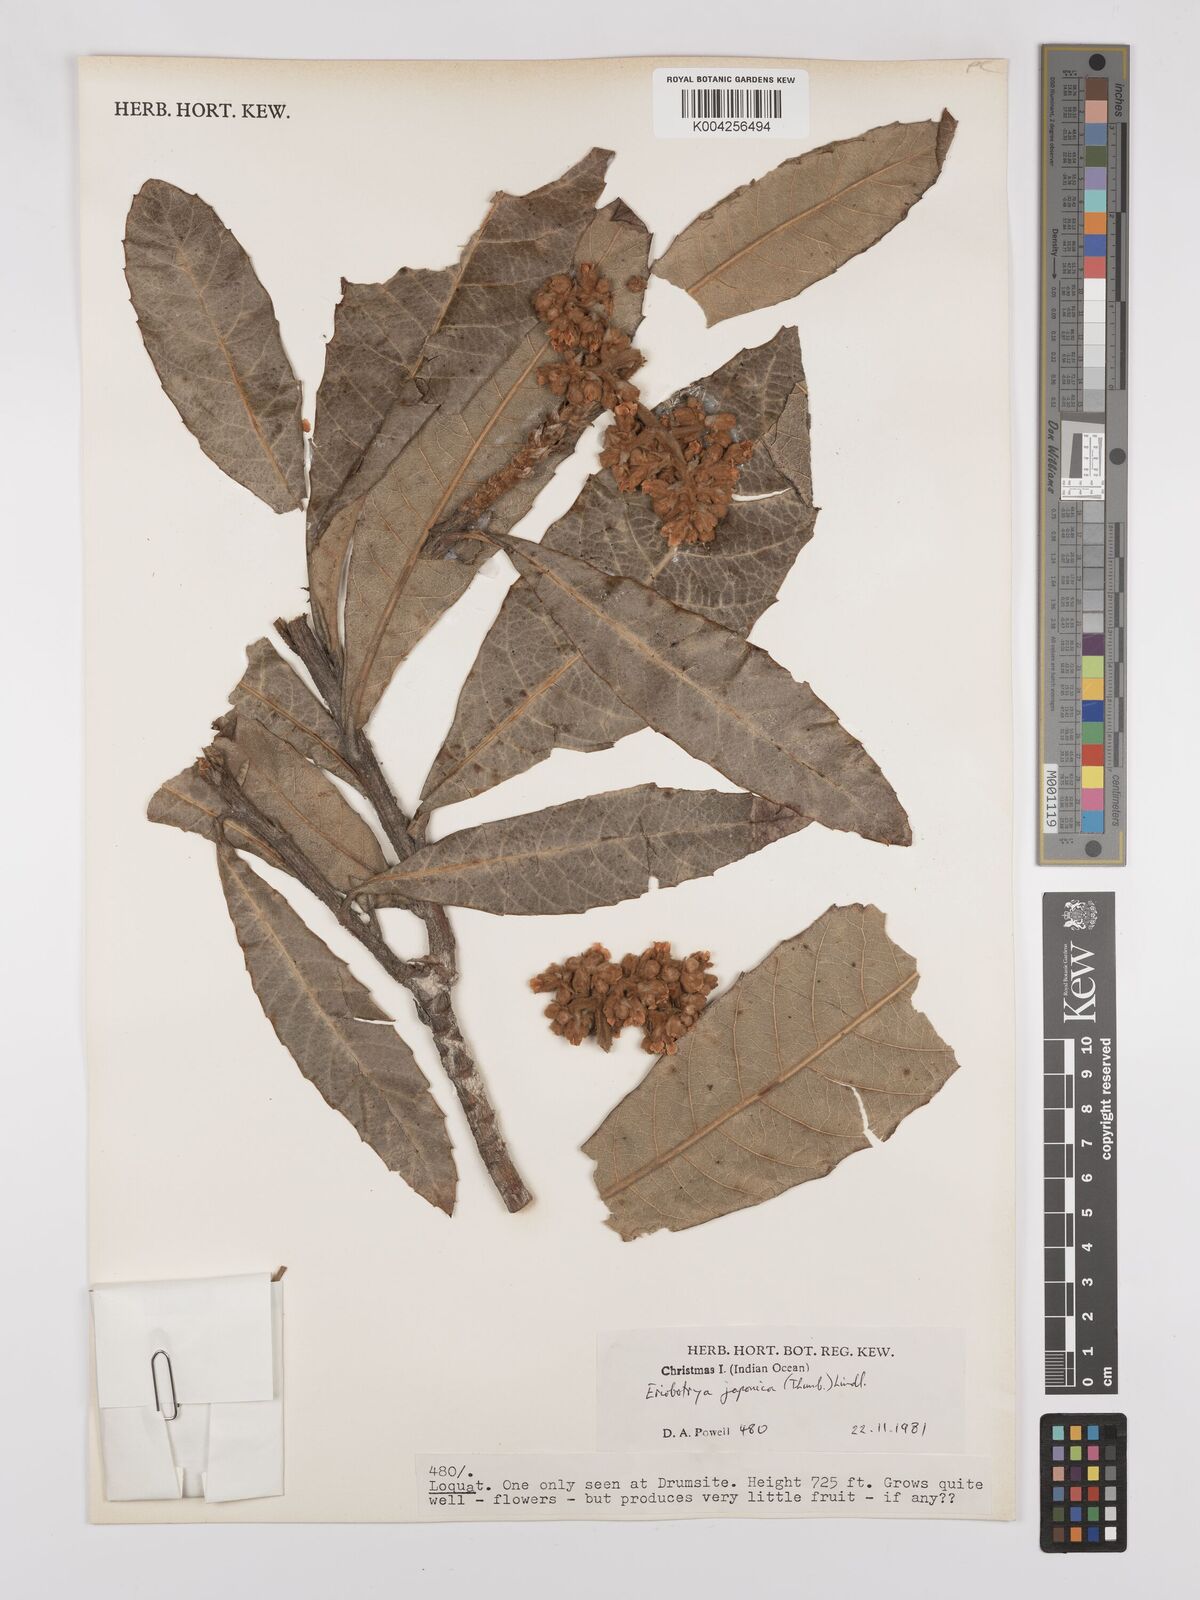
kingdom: Plantae
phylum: Tracheophyta
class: Magnoliopsida
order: Rosales
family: Rosaceae
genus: Rhaphiolepis
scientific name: Rhaphiolepis bibas
